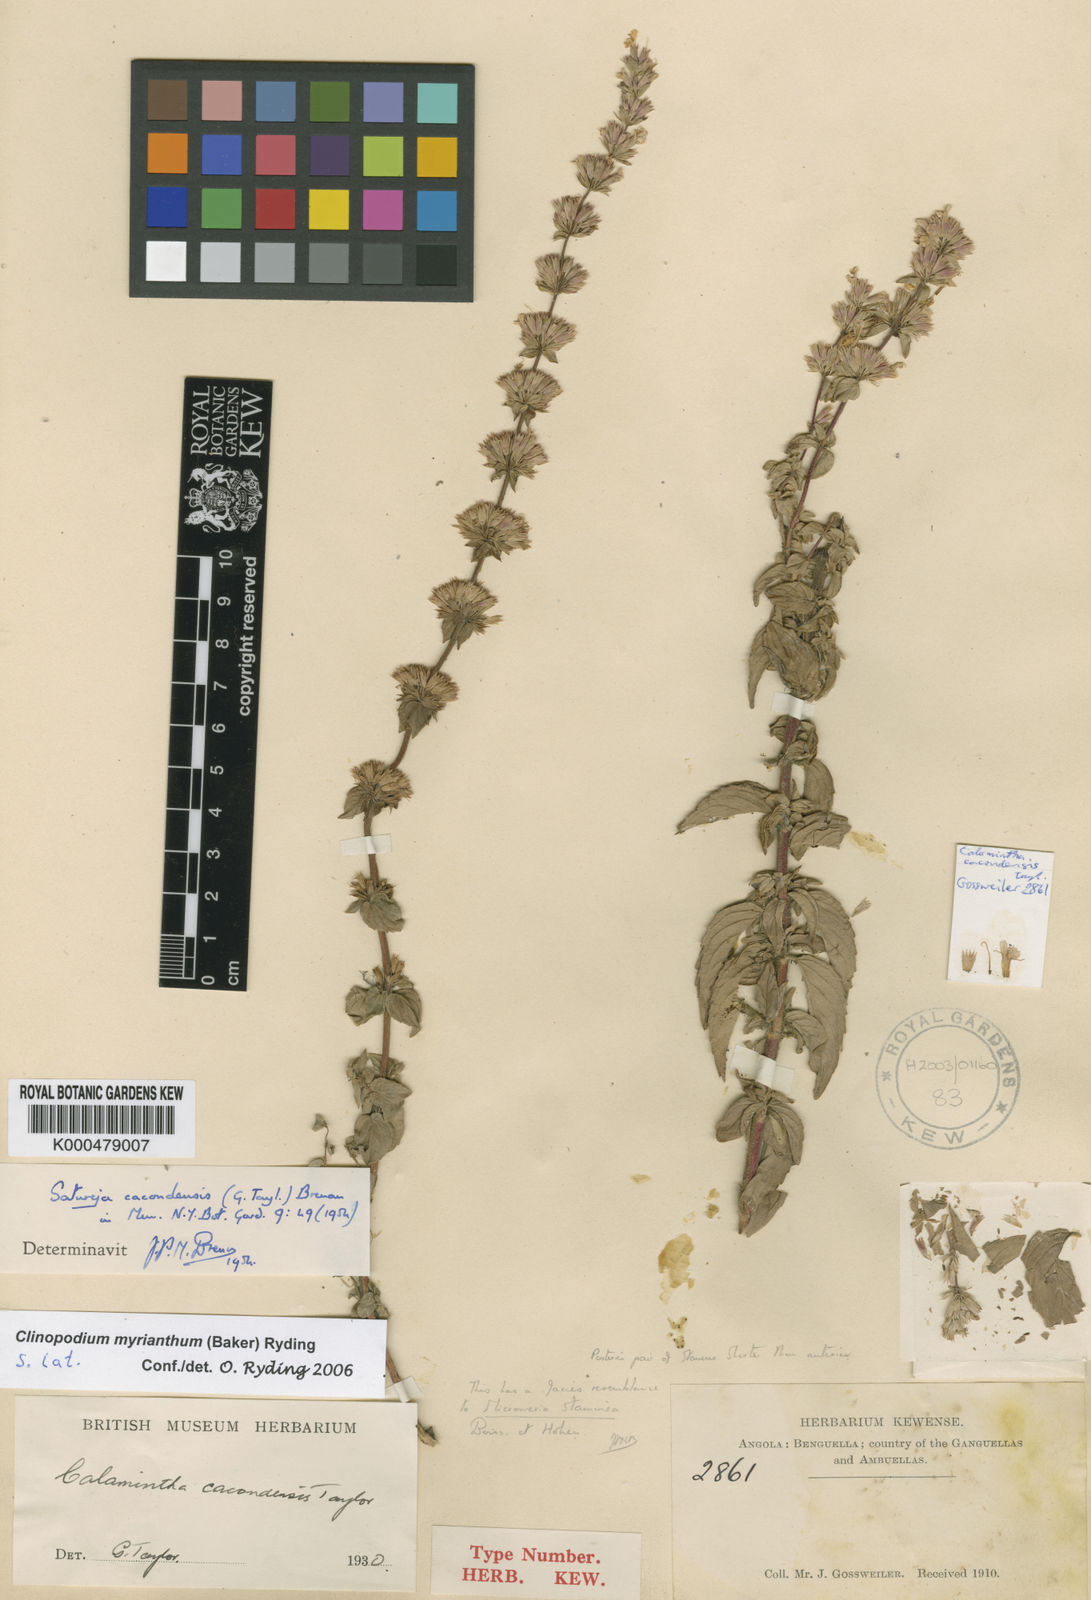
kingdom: Plantae
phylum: Tracheophyta
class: Magnoliopsida
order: Lamiales
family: Lamiaceae
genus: Clinopodium
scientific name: Clinopodium myrianthum
